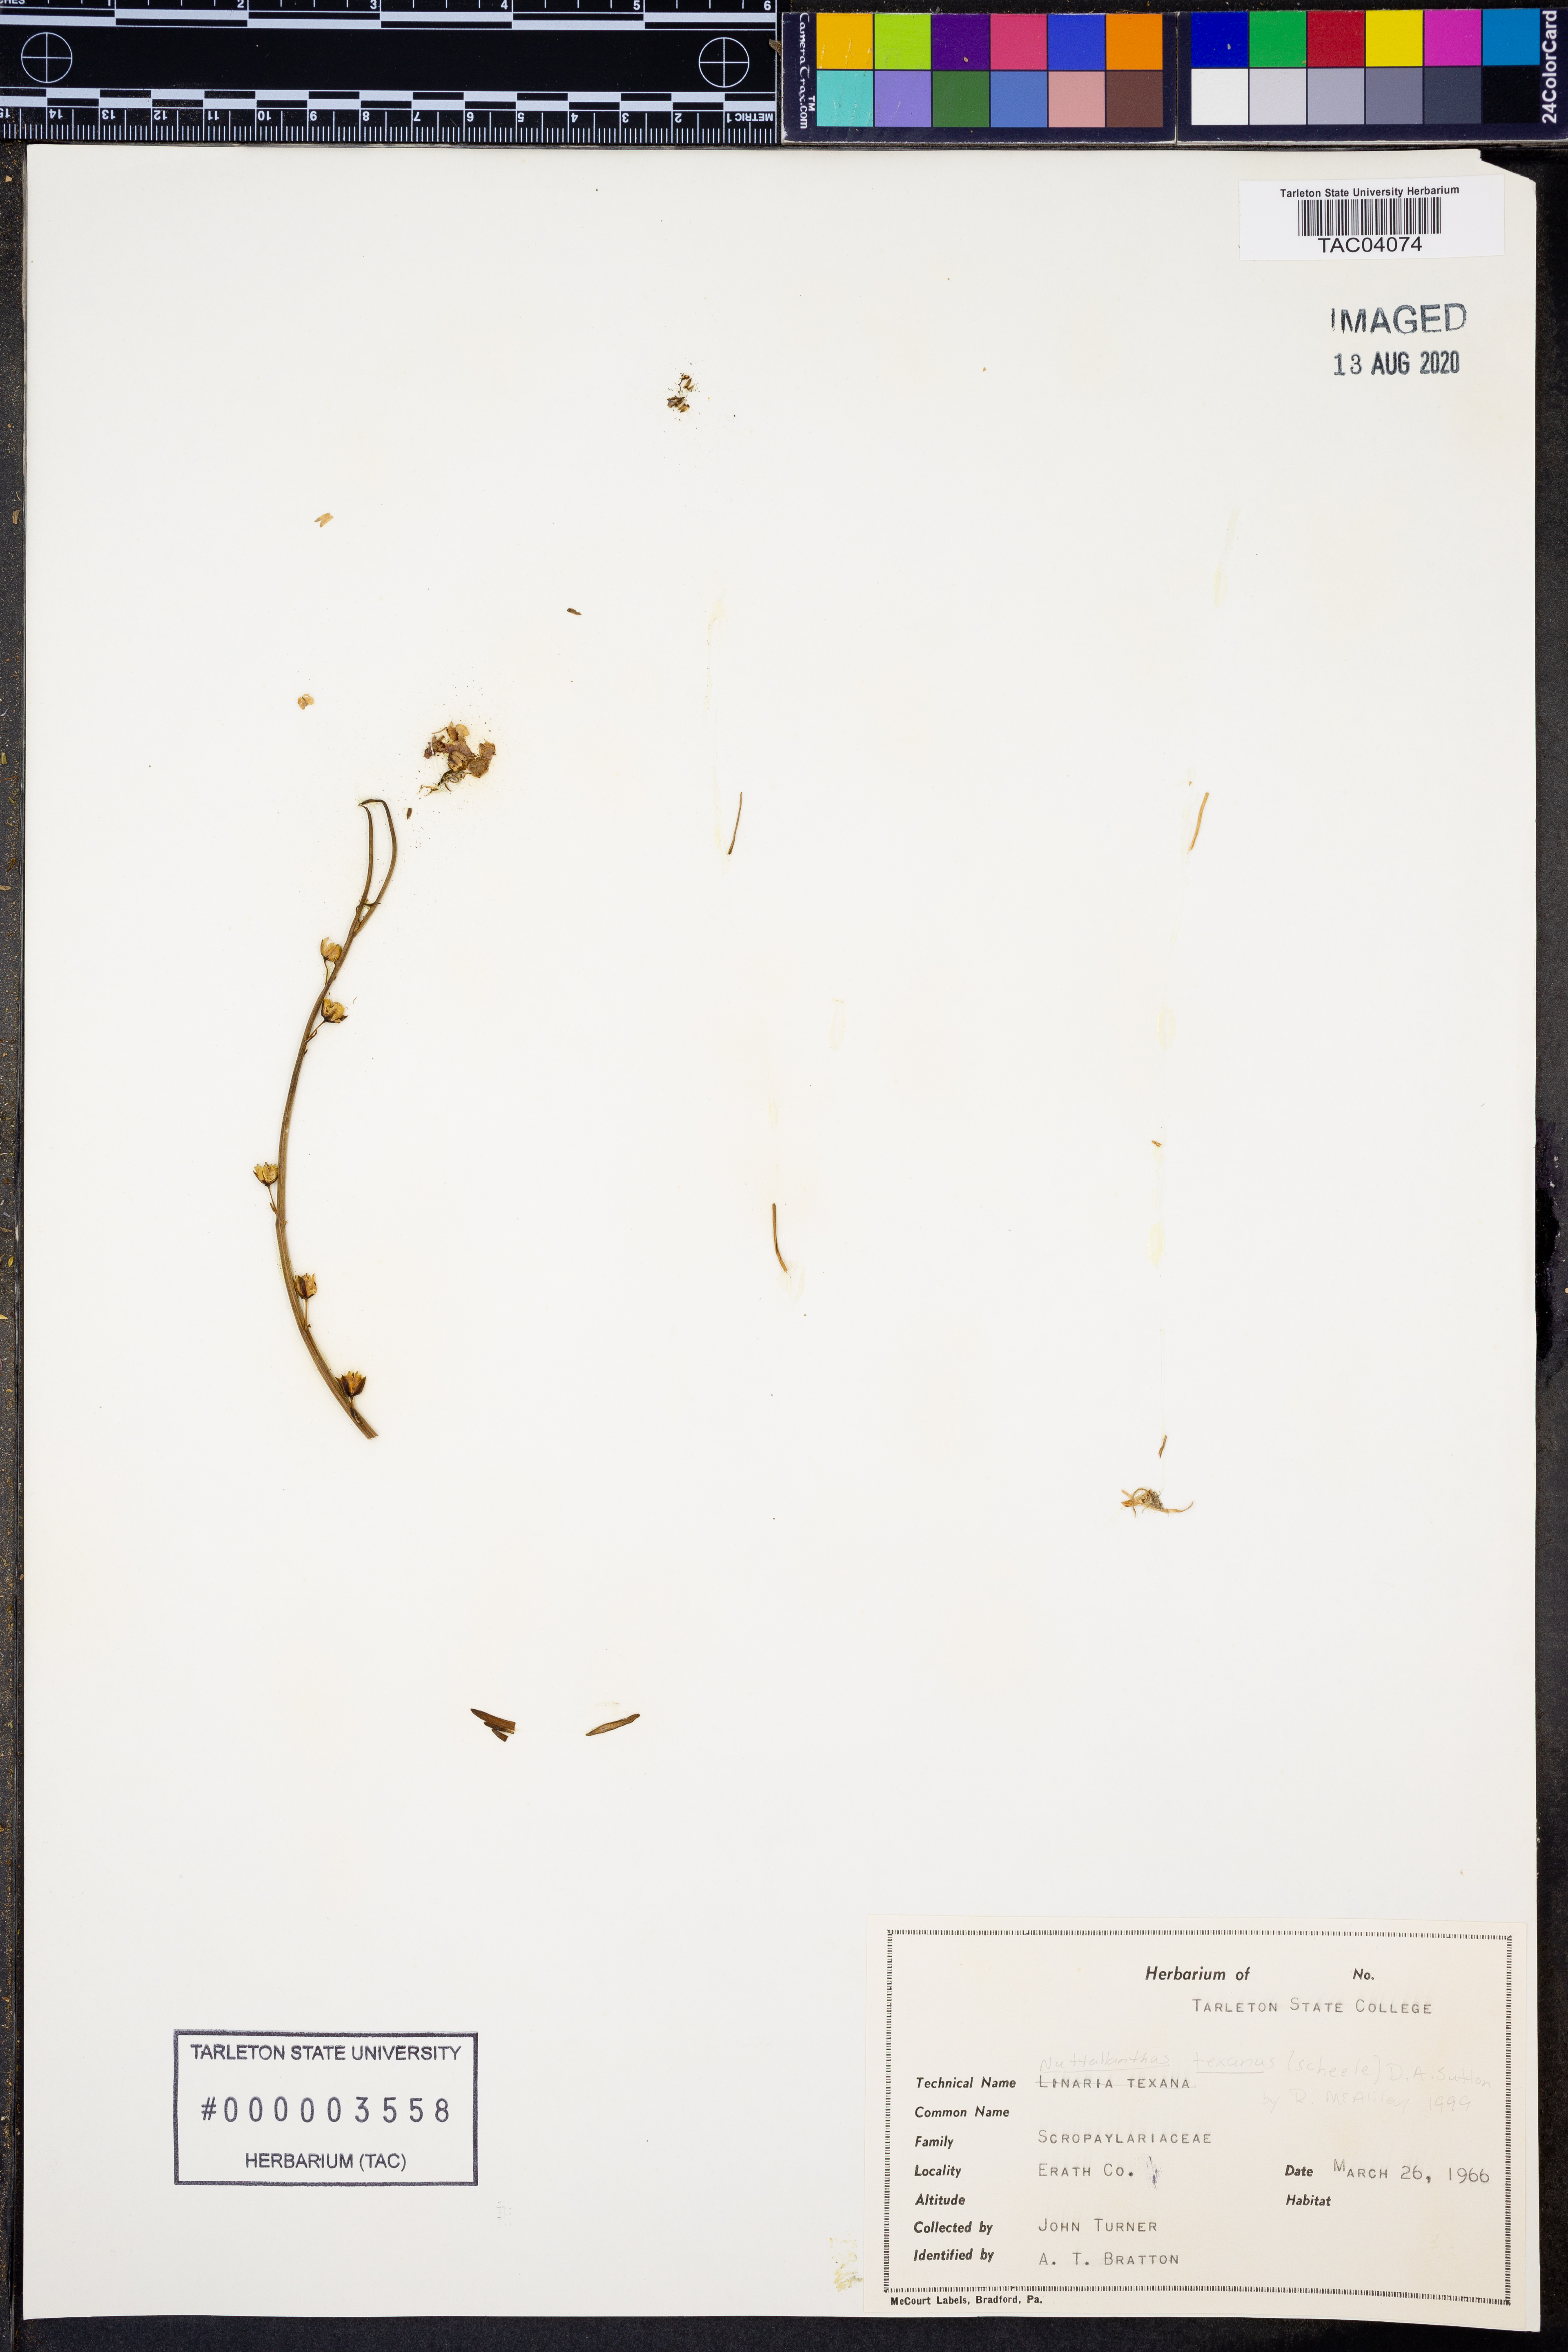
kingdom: Plantae
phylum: Tracheophyta
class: Magnoliopsida
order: Lamiales
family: Plantaginaceae
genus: Nuttallanthus
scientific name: Nuttallanthus texanus
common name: Texas toadflax
